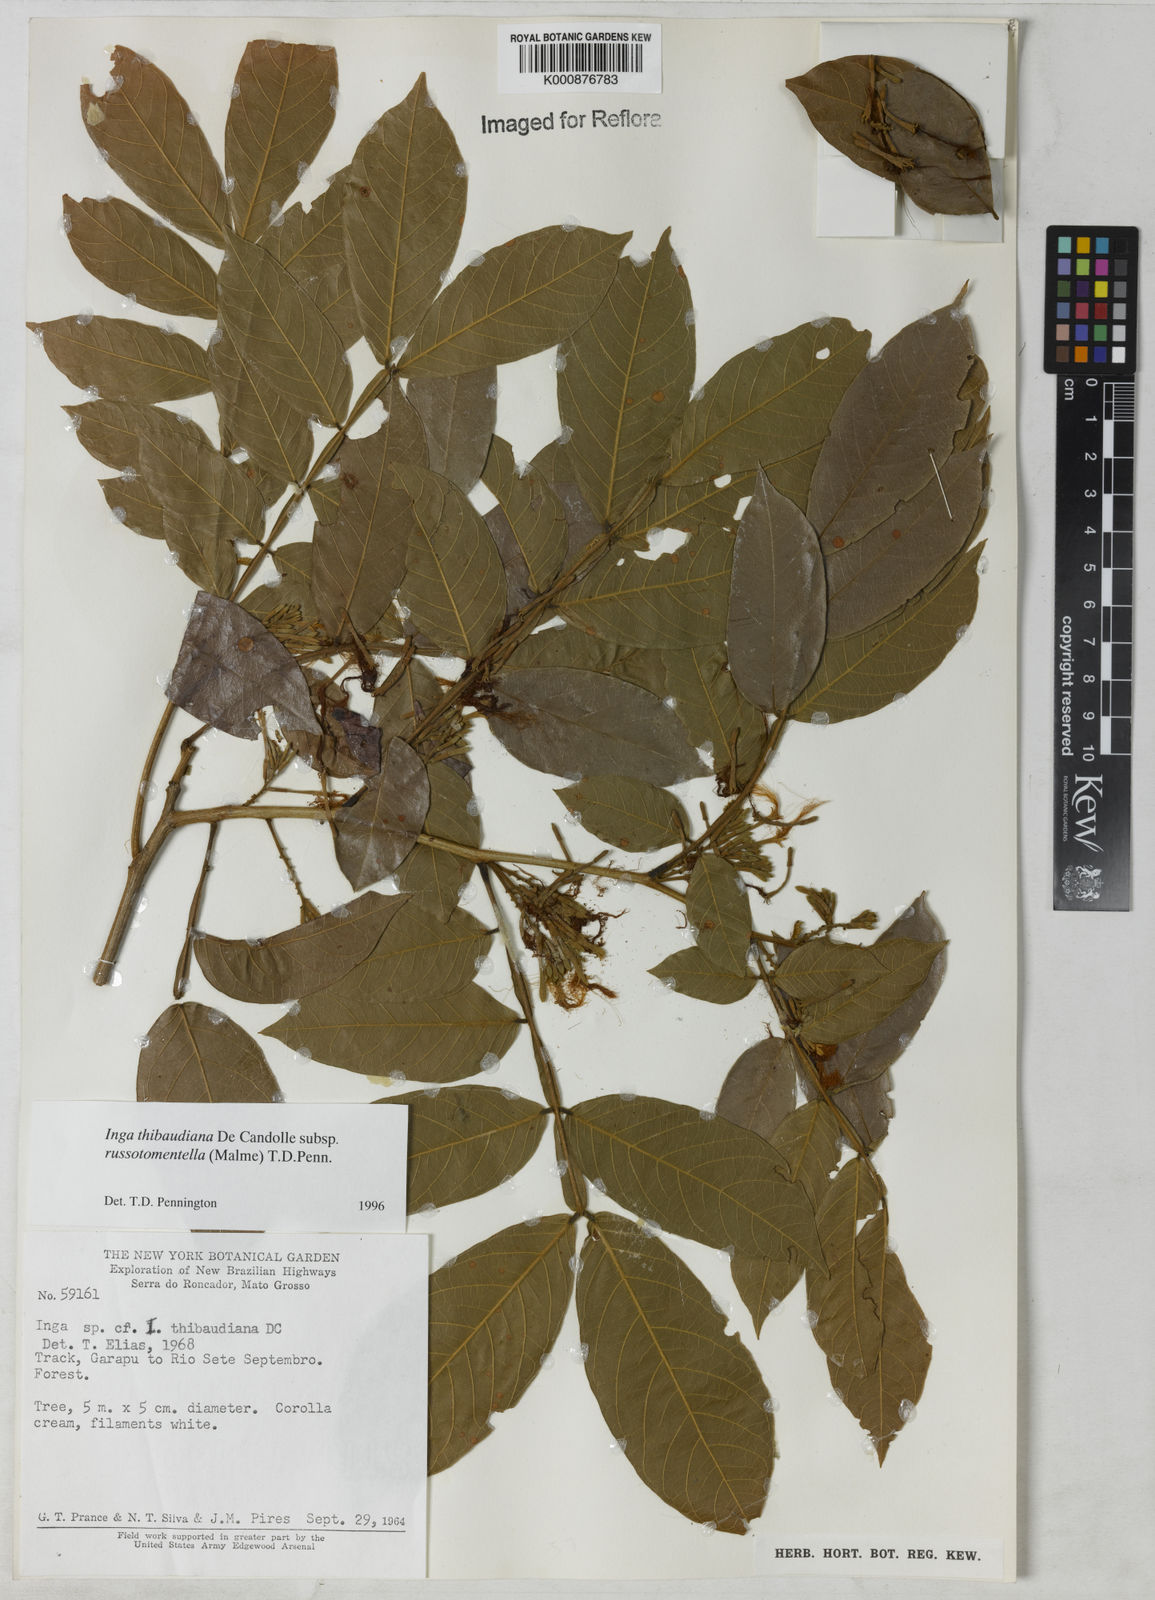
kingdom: Plantae
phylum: Tracheophyta
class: Magnoliopsida
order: Fabales
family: Fabaceae
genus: Inga
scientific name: Inga thibaudiana
